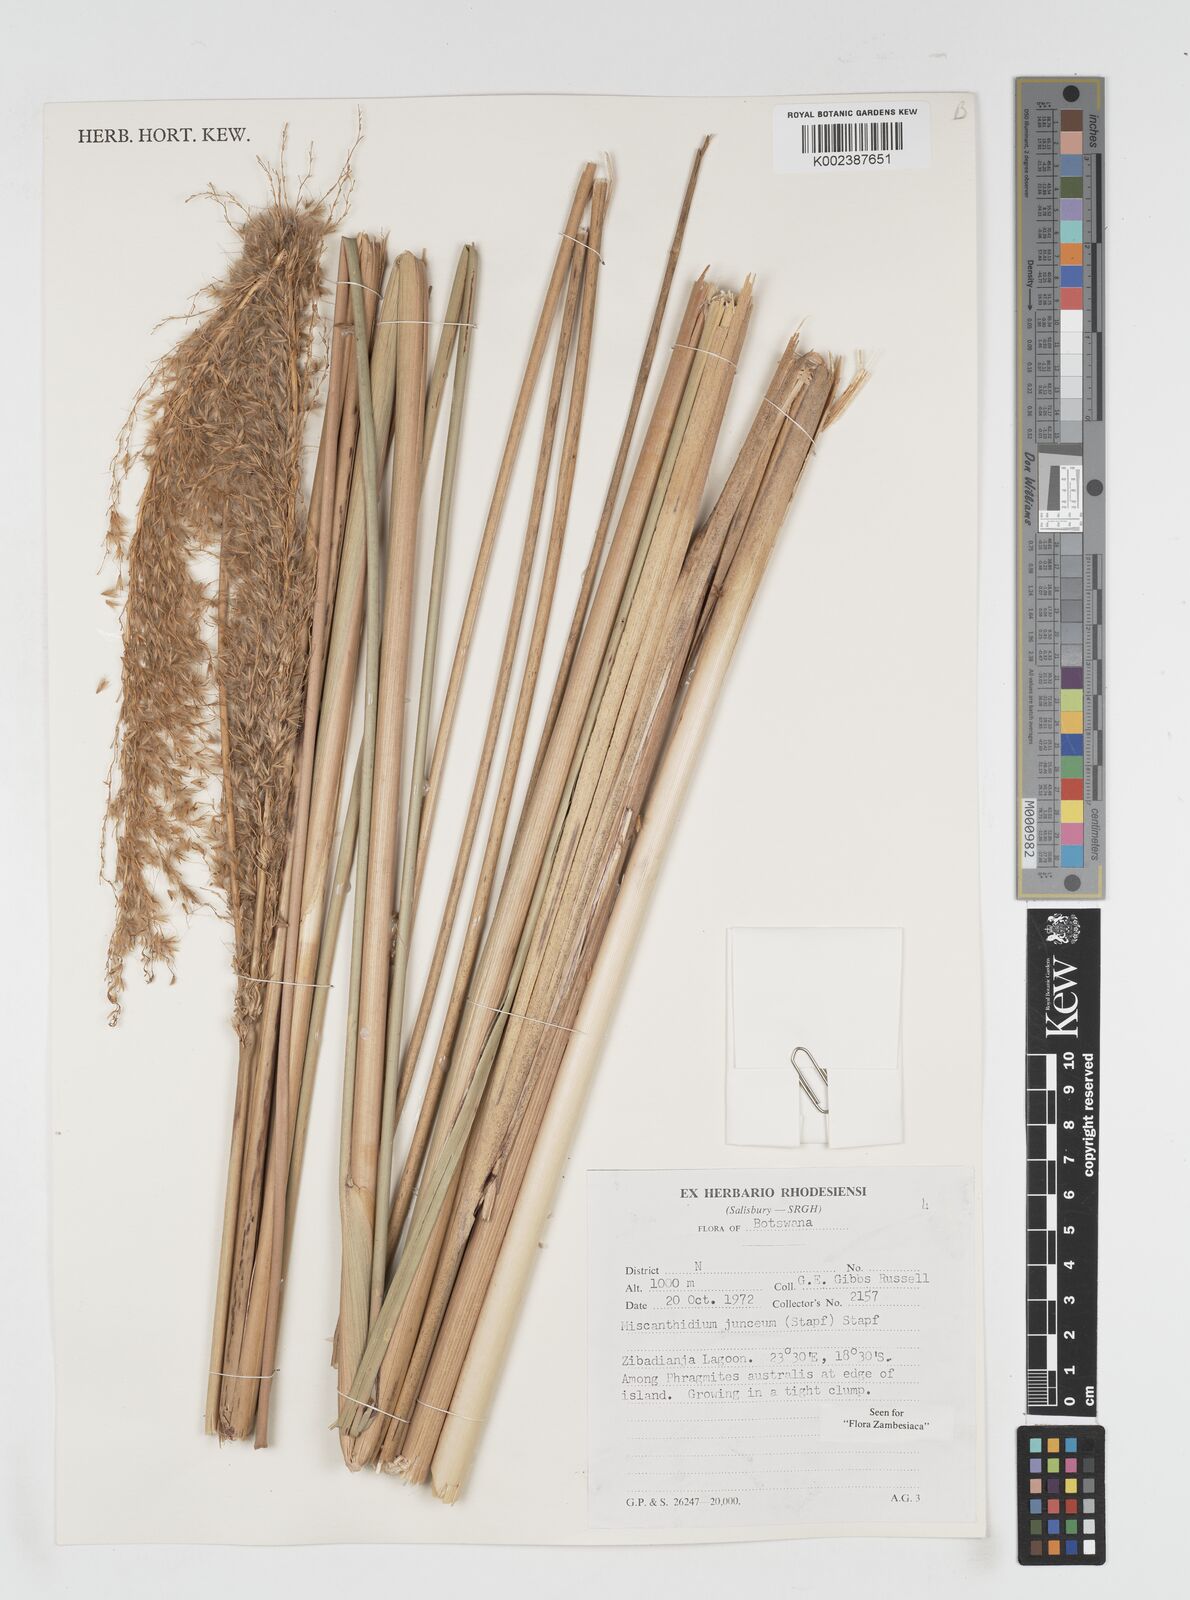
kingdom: Plantae
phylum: Tracheophyta
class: Liliopsida
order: Poales
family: Poaceae
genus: Miscanthidium
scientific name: Miscanthidium junceum
